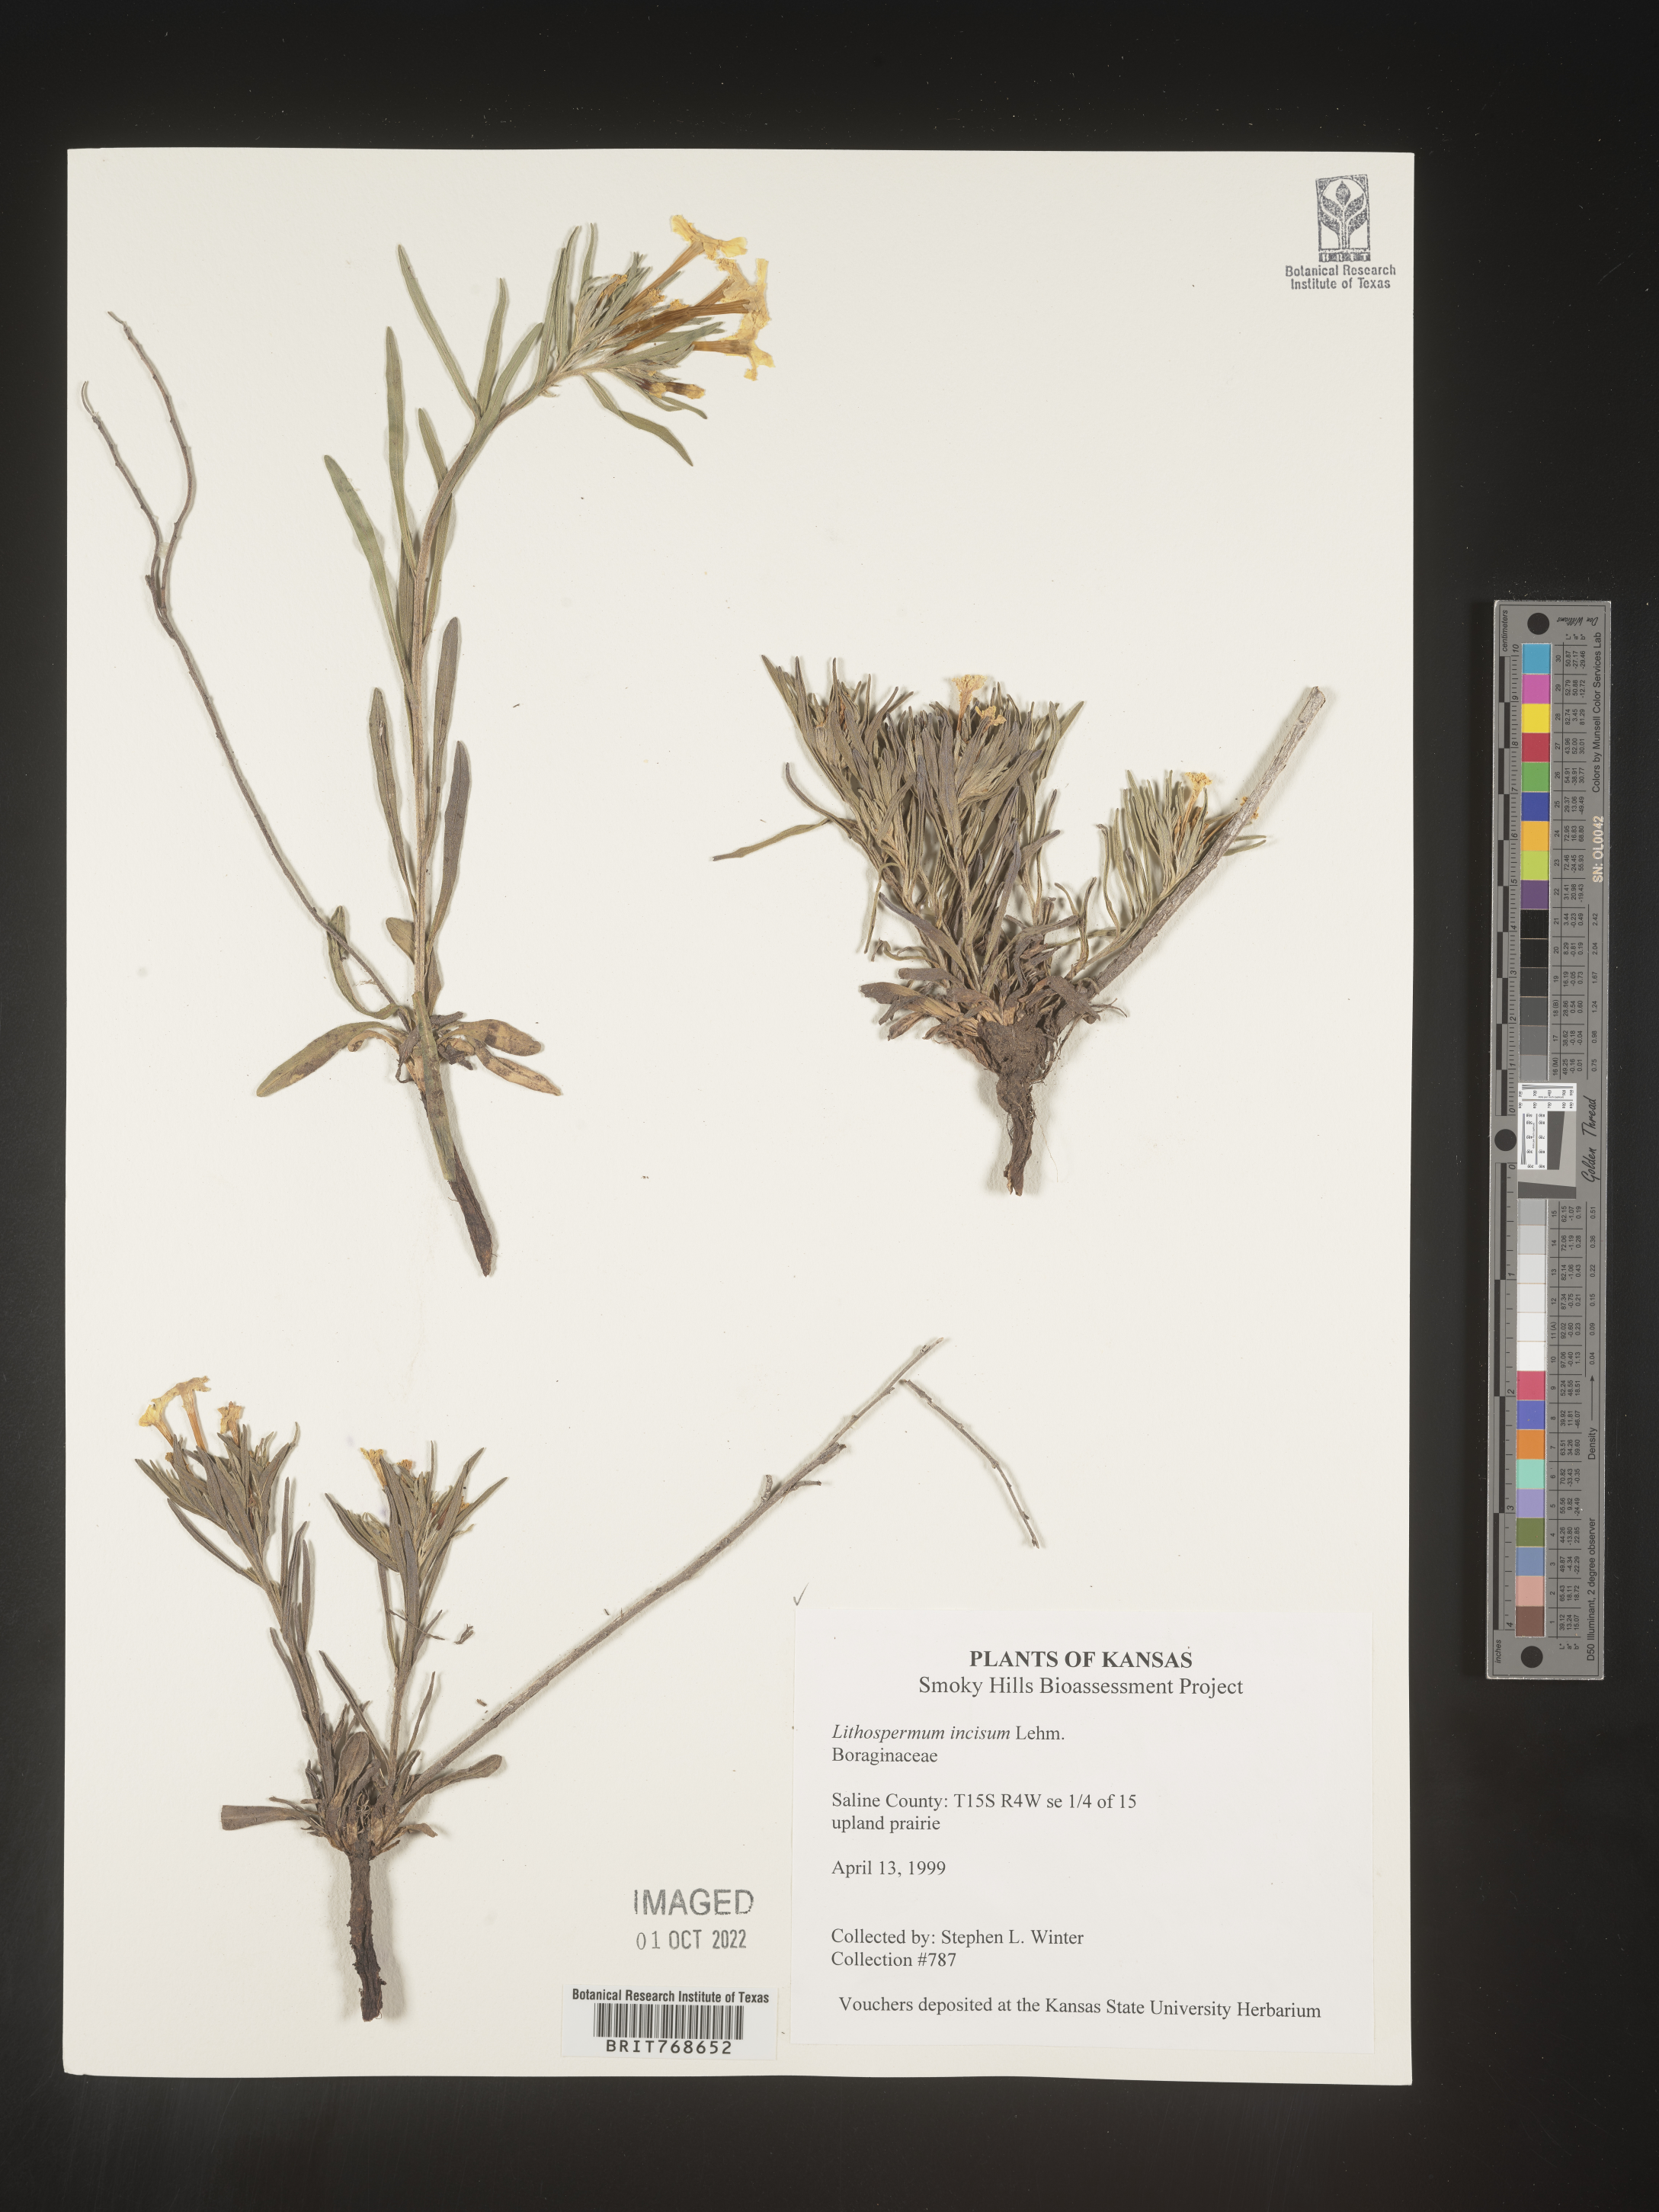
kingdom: Plantae
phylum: Tracheophyta
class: Magnoliopsida
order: Boraginales
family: Boraginaceae
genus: Lithospermum
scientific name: Lithospermum incisum
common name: Fringed gromwell
